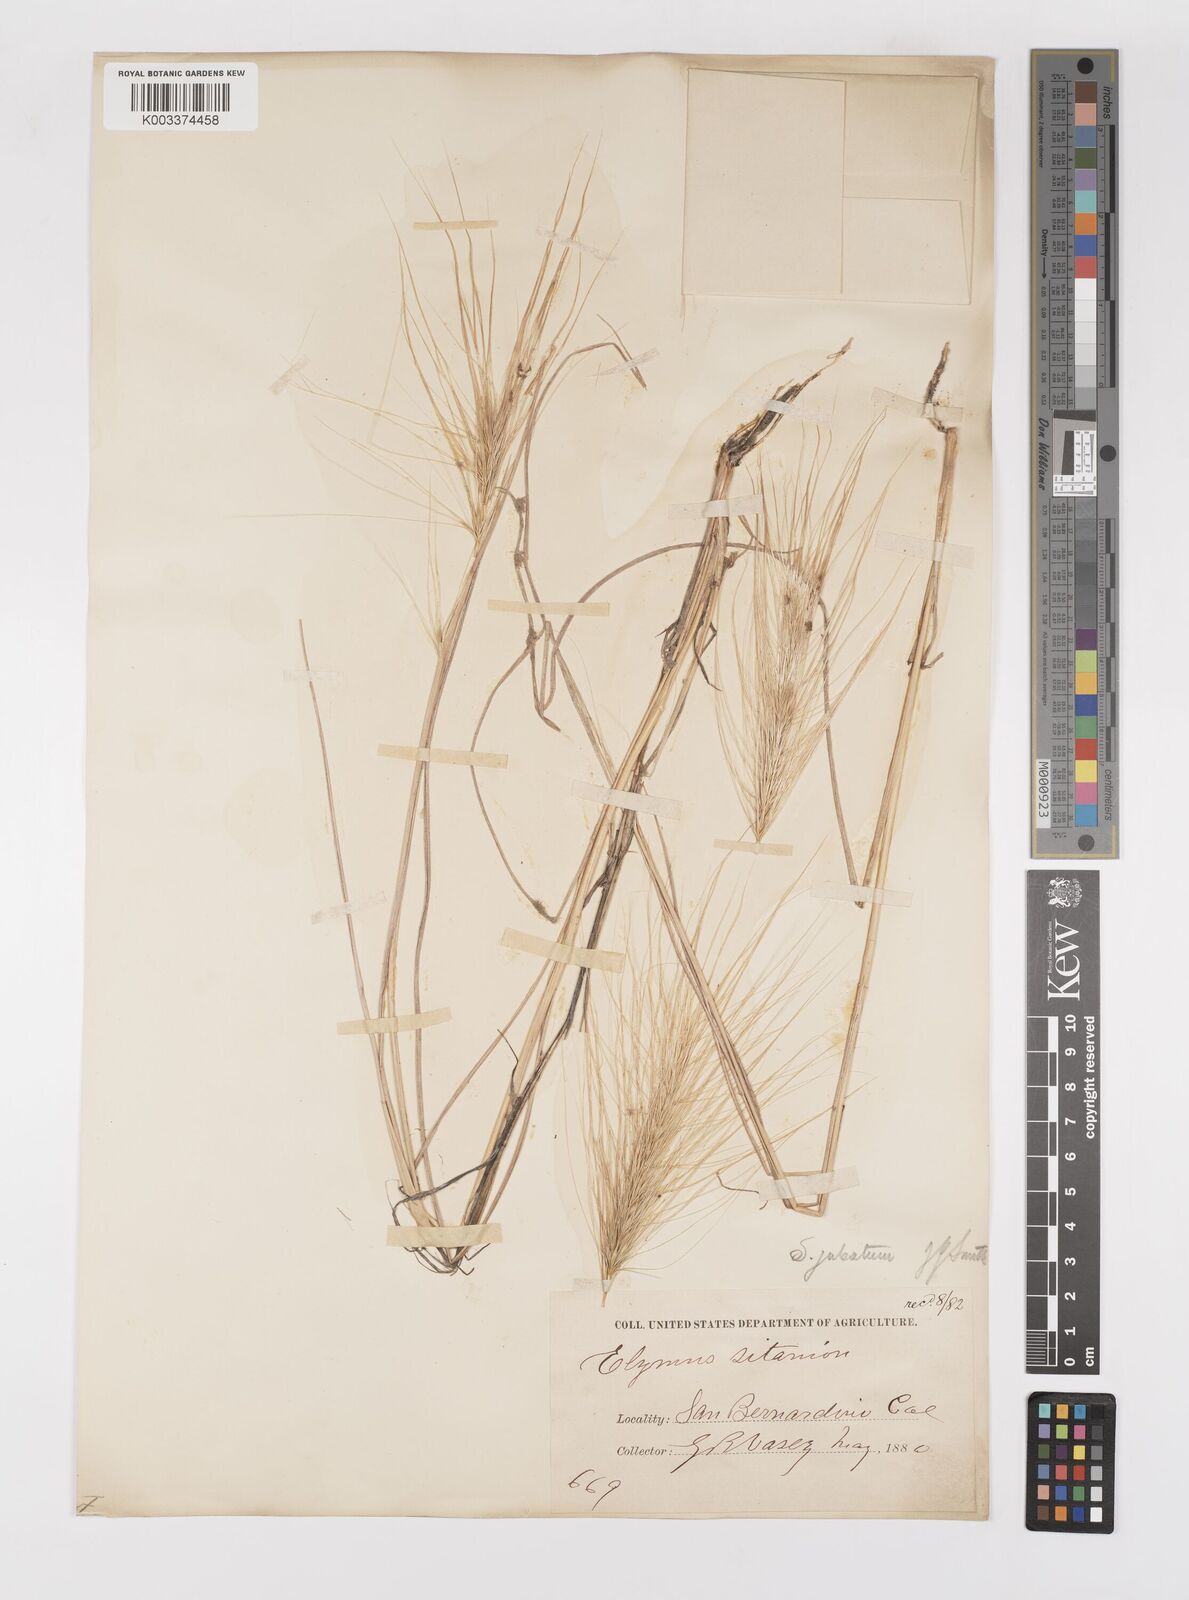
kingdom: Plantae
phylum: Tracheophyta
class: Liliopsida
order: Poales
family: Poaceae
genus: Elymus
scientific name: Elymus multisetus
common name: Big squirreltail
